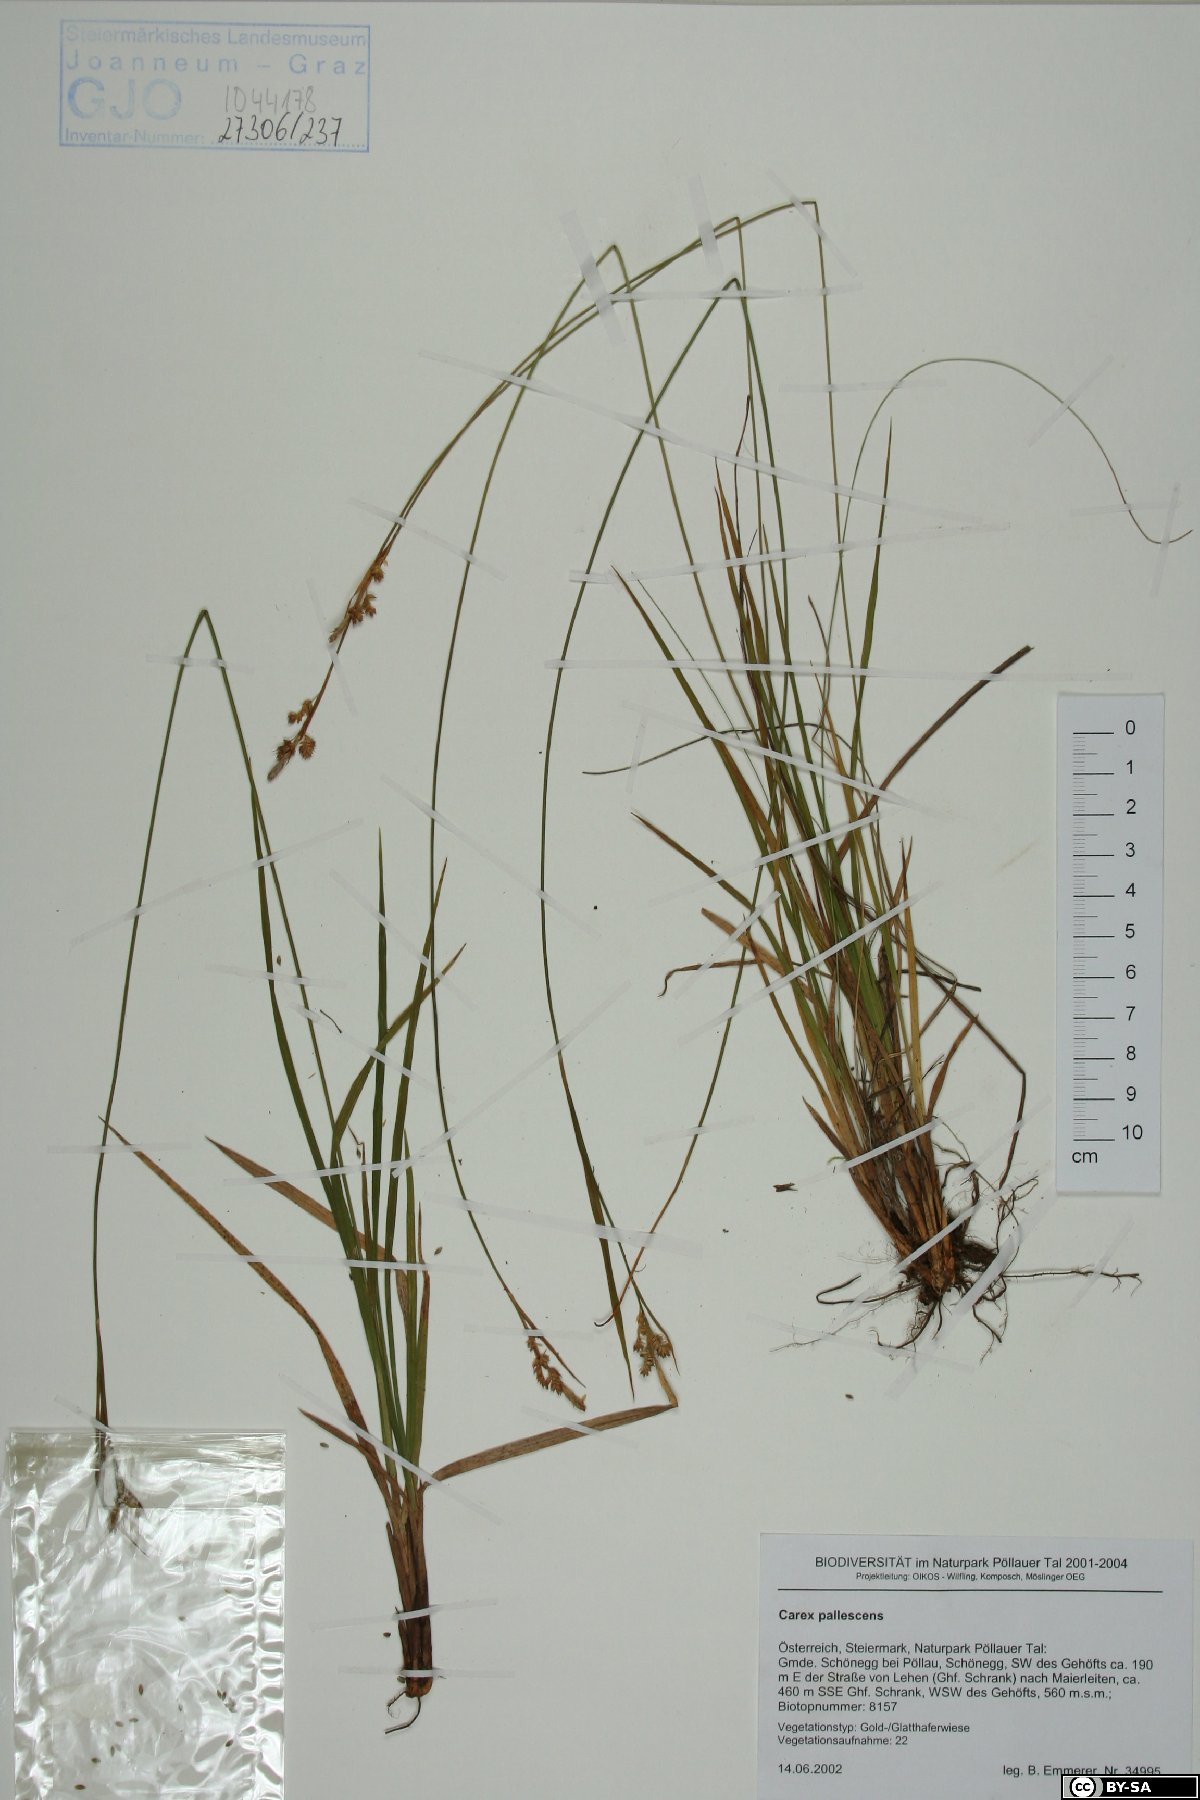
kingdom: Plantae
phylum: Tracheophyta
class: Liliopsida
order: Poales
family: Cyperaceae
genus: Carex
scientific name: Carex pallescens
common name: Pale sedge
